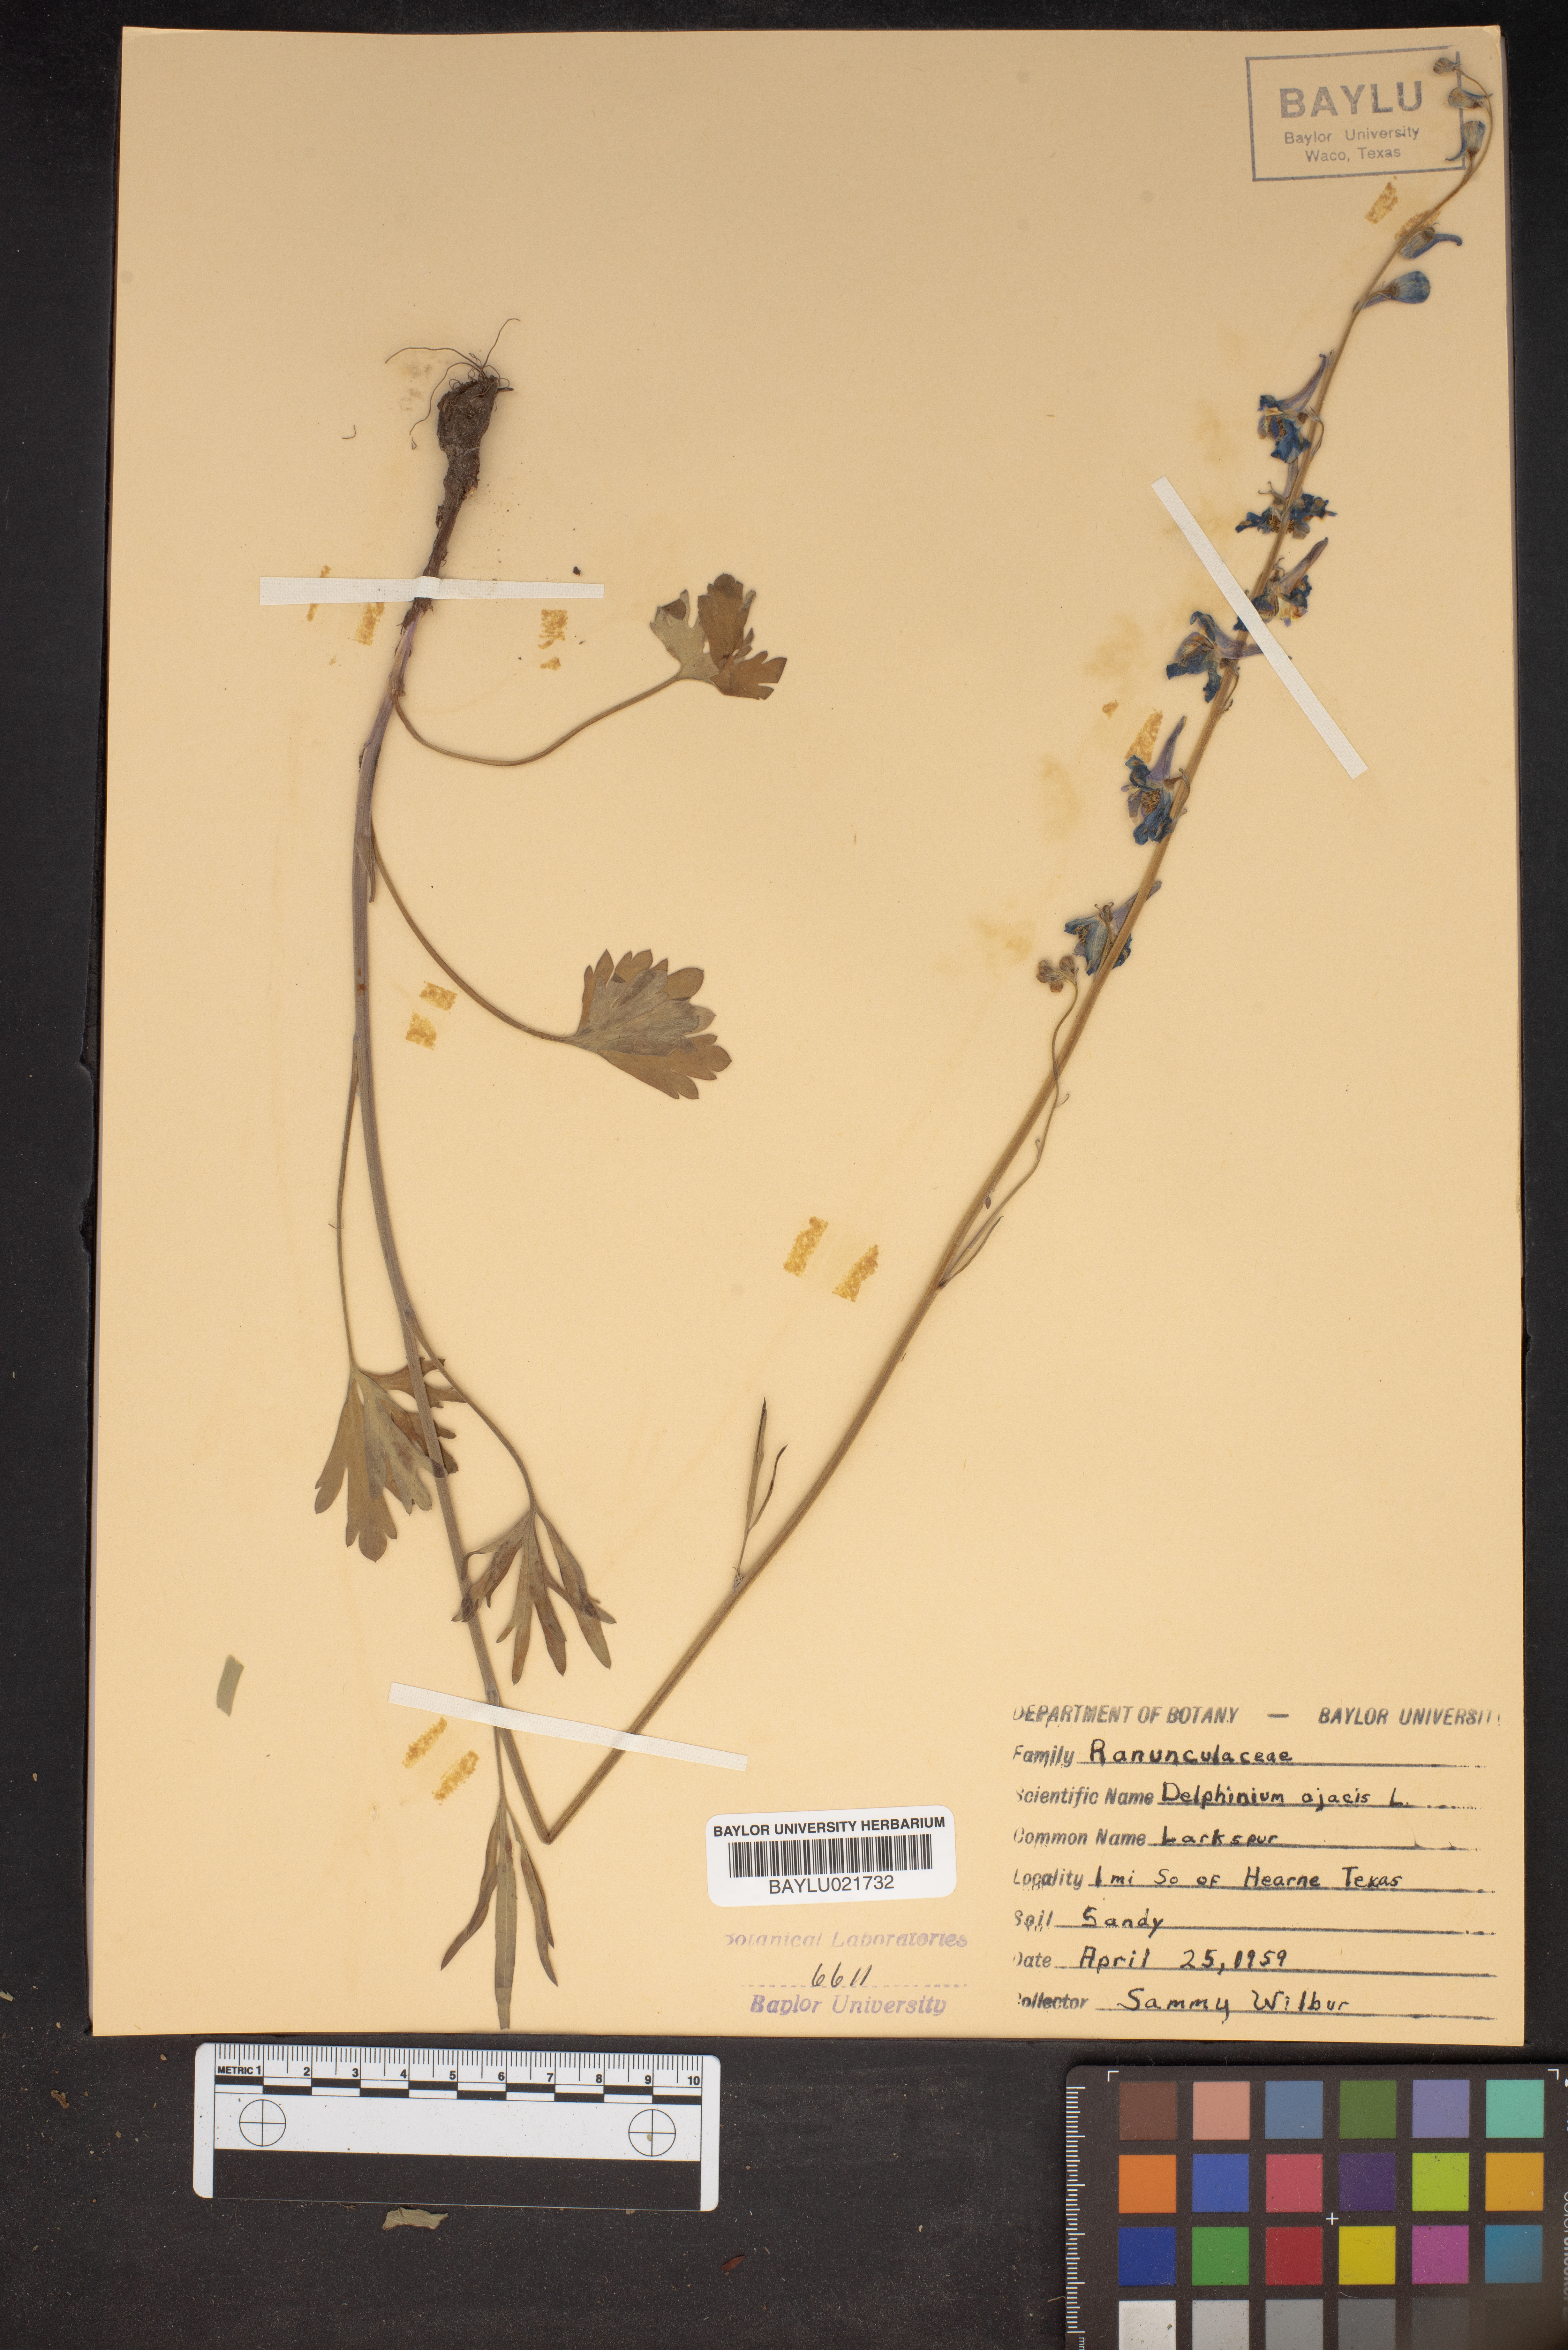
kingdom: Plantae
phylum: Tracheophyta
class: Magnoliopsida
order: Ranunculales
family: Ranunculaceae
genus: Delphinium
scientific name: Delphinium ajacis
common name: Doubtful knight's-spur
